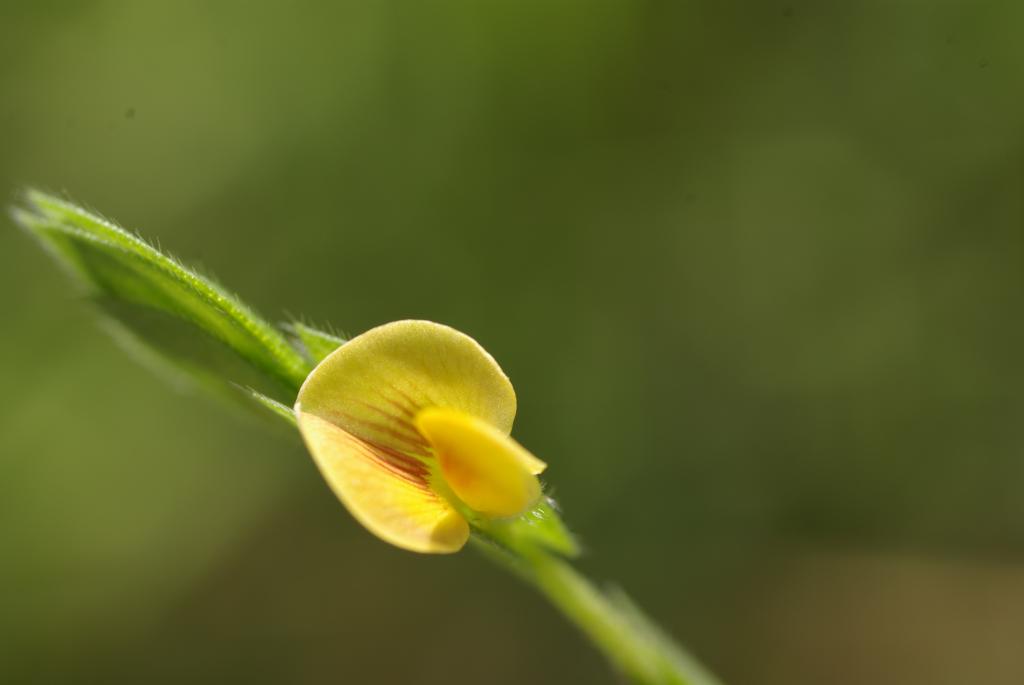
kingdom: Plantae
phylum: Tracheophyta
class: Magnoliopsida
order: Fabales
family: Fabaceae
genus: Zornia
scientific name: Zornia gibbosa
